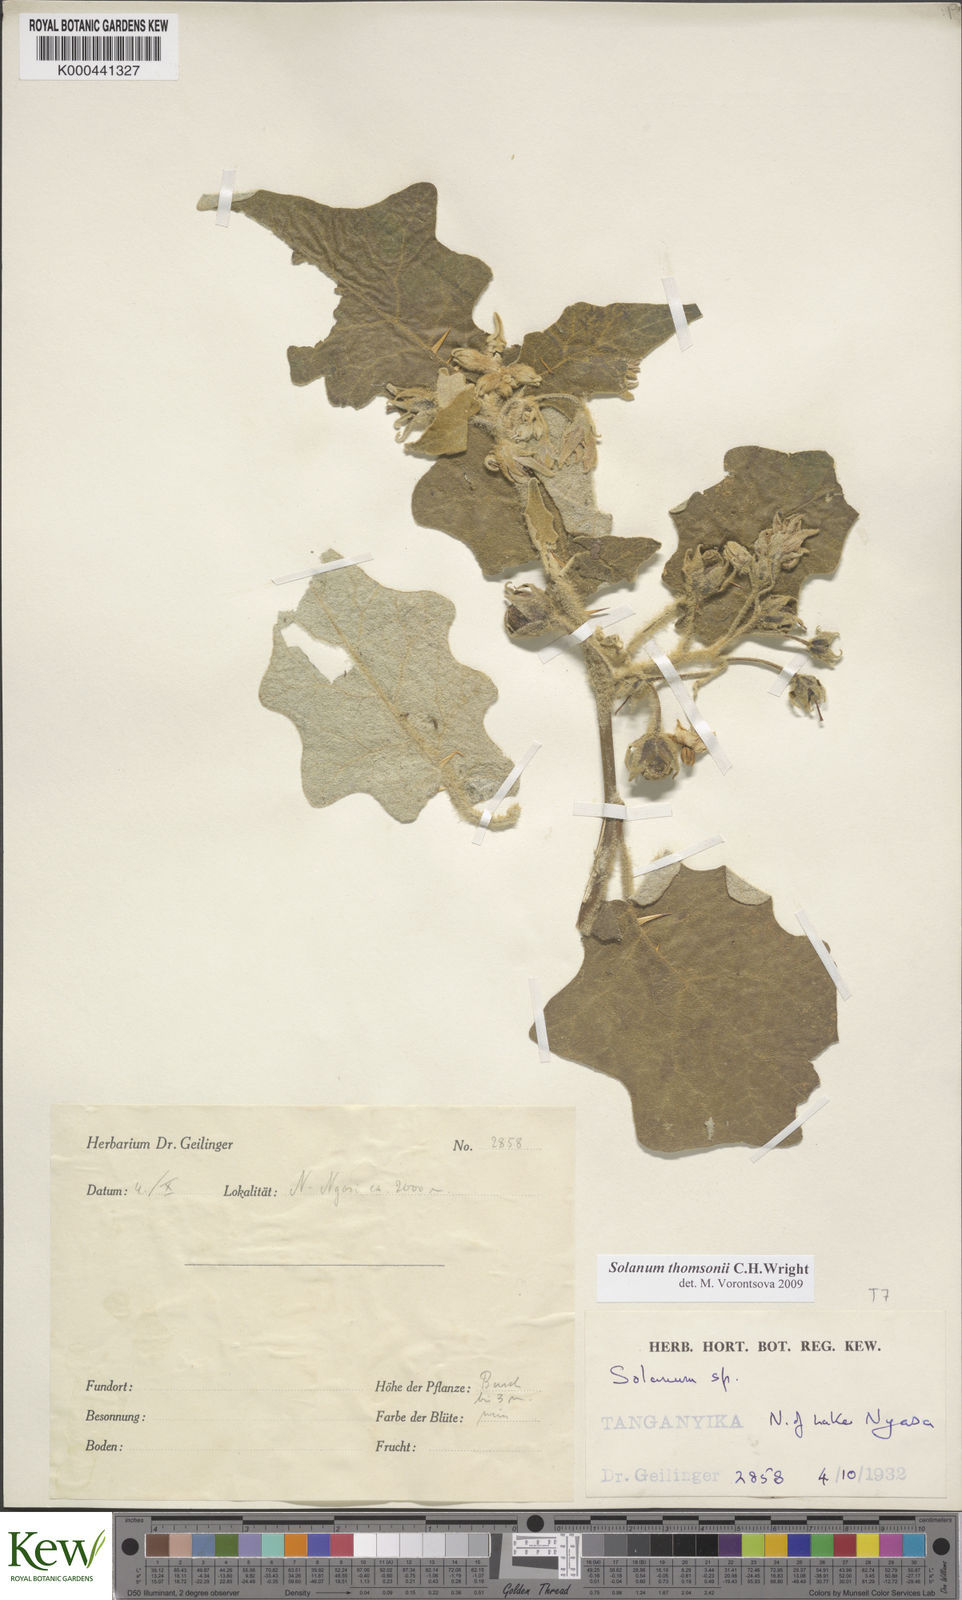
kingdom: Plantae
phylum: Tracheophyta
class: Magnoliopsida
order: Solanales
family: Solanaceae
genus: Solanum
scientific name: Solanum aculeastrum
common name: Goat bitter-apple
